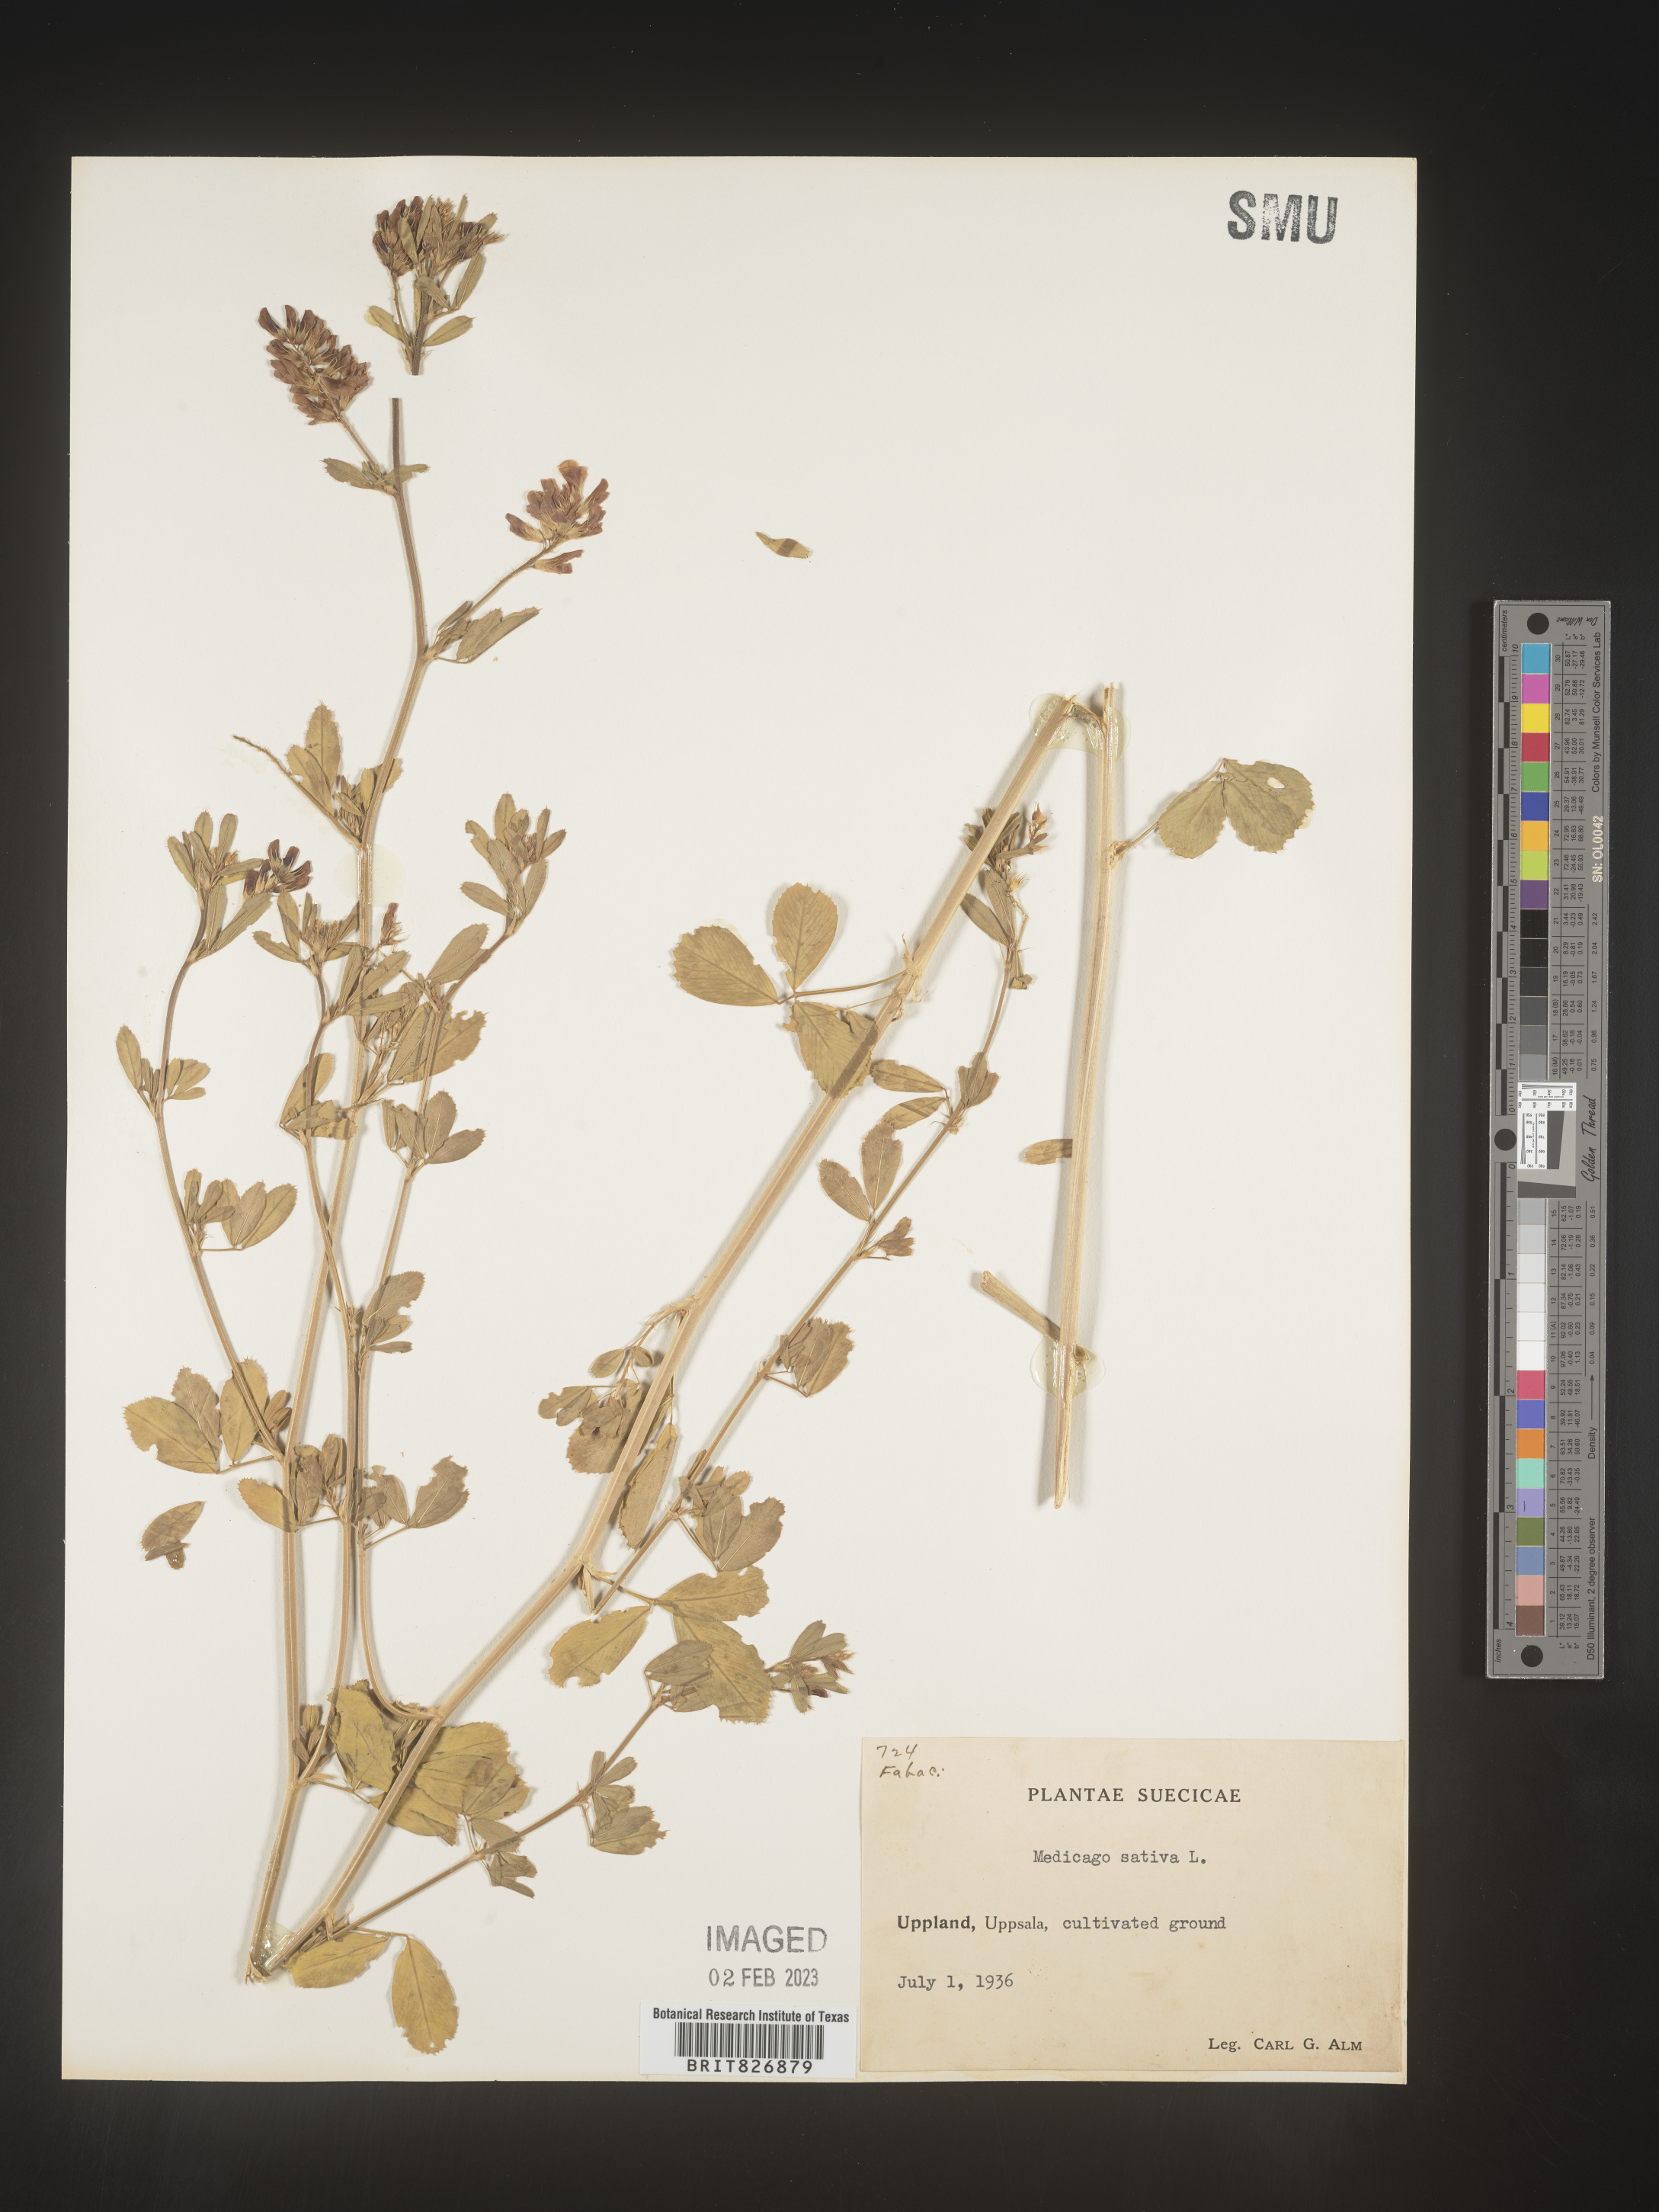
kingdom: Plantae
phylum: Tracheophyta
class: Magnoliopsida
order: Fabales
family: Fabaceae
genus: Medicago
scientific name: Medicago
